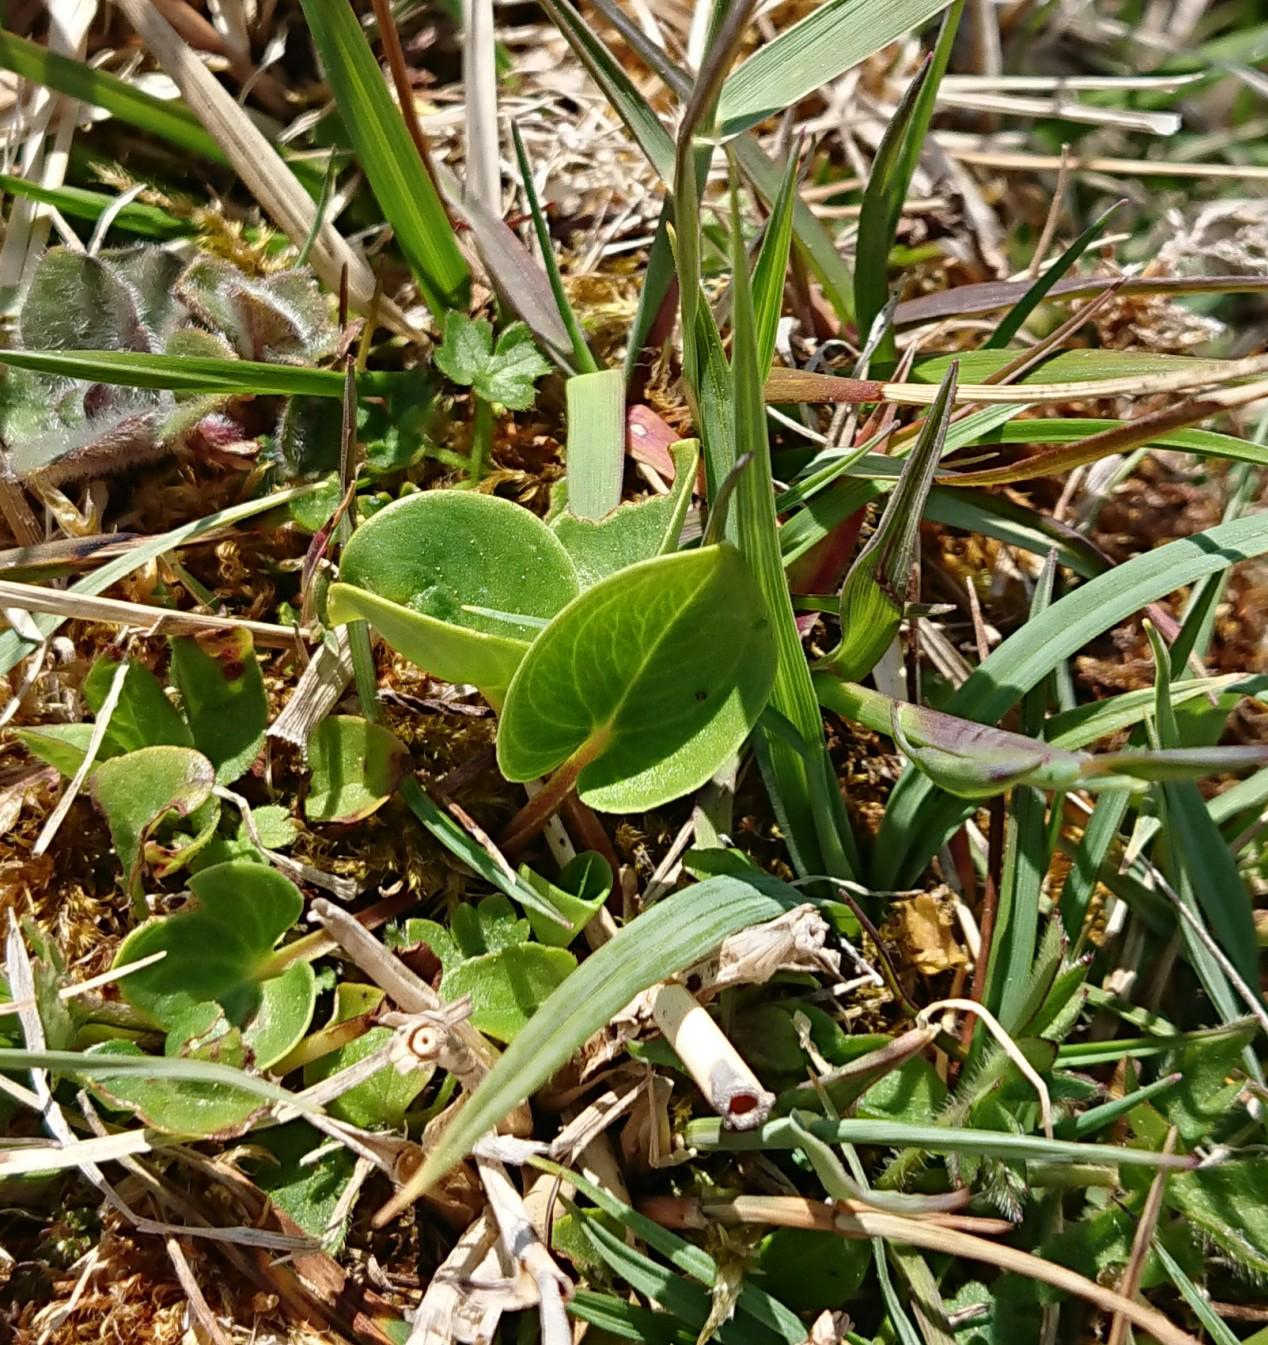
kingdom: Plantae
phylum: Tracheophyta
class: Magnoliopsida
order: Celastrales
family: Parnassiaceae
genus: Parnassia
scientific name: Parnassia palustris
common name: Leverurt
